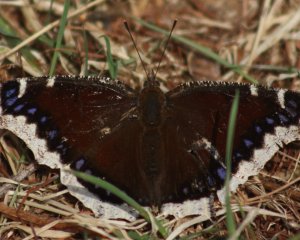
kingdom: Animalia
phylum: Arthropoda
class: Insecta
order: Lepidoptera
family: Nymphalidae
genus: Nymphalis
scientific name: Nymphalis antiopa
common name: Mourning Cloak
